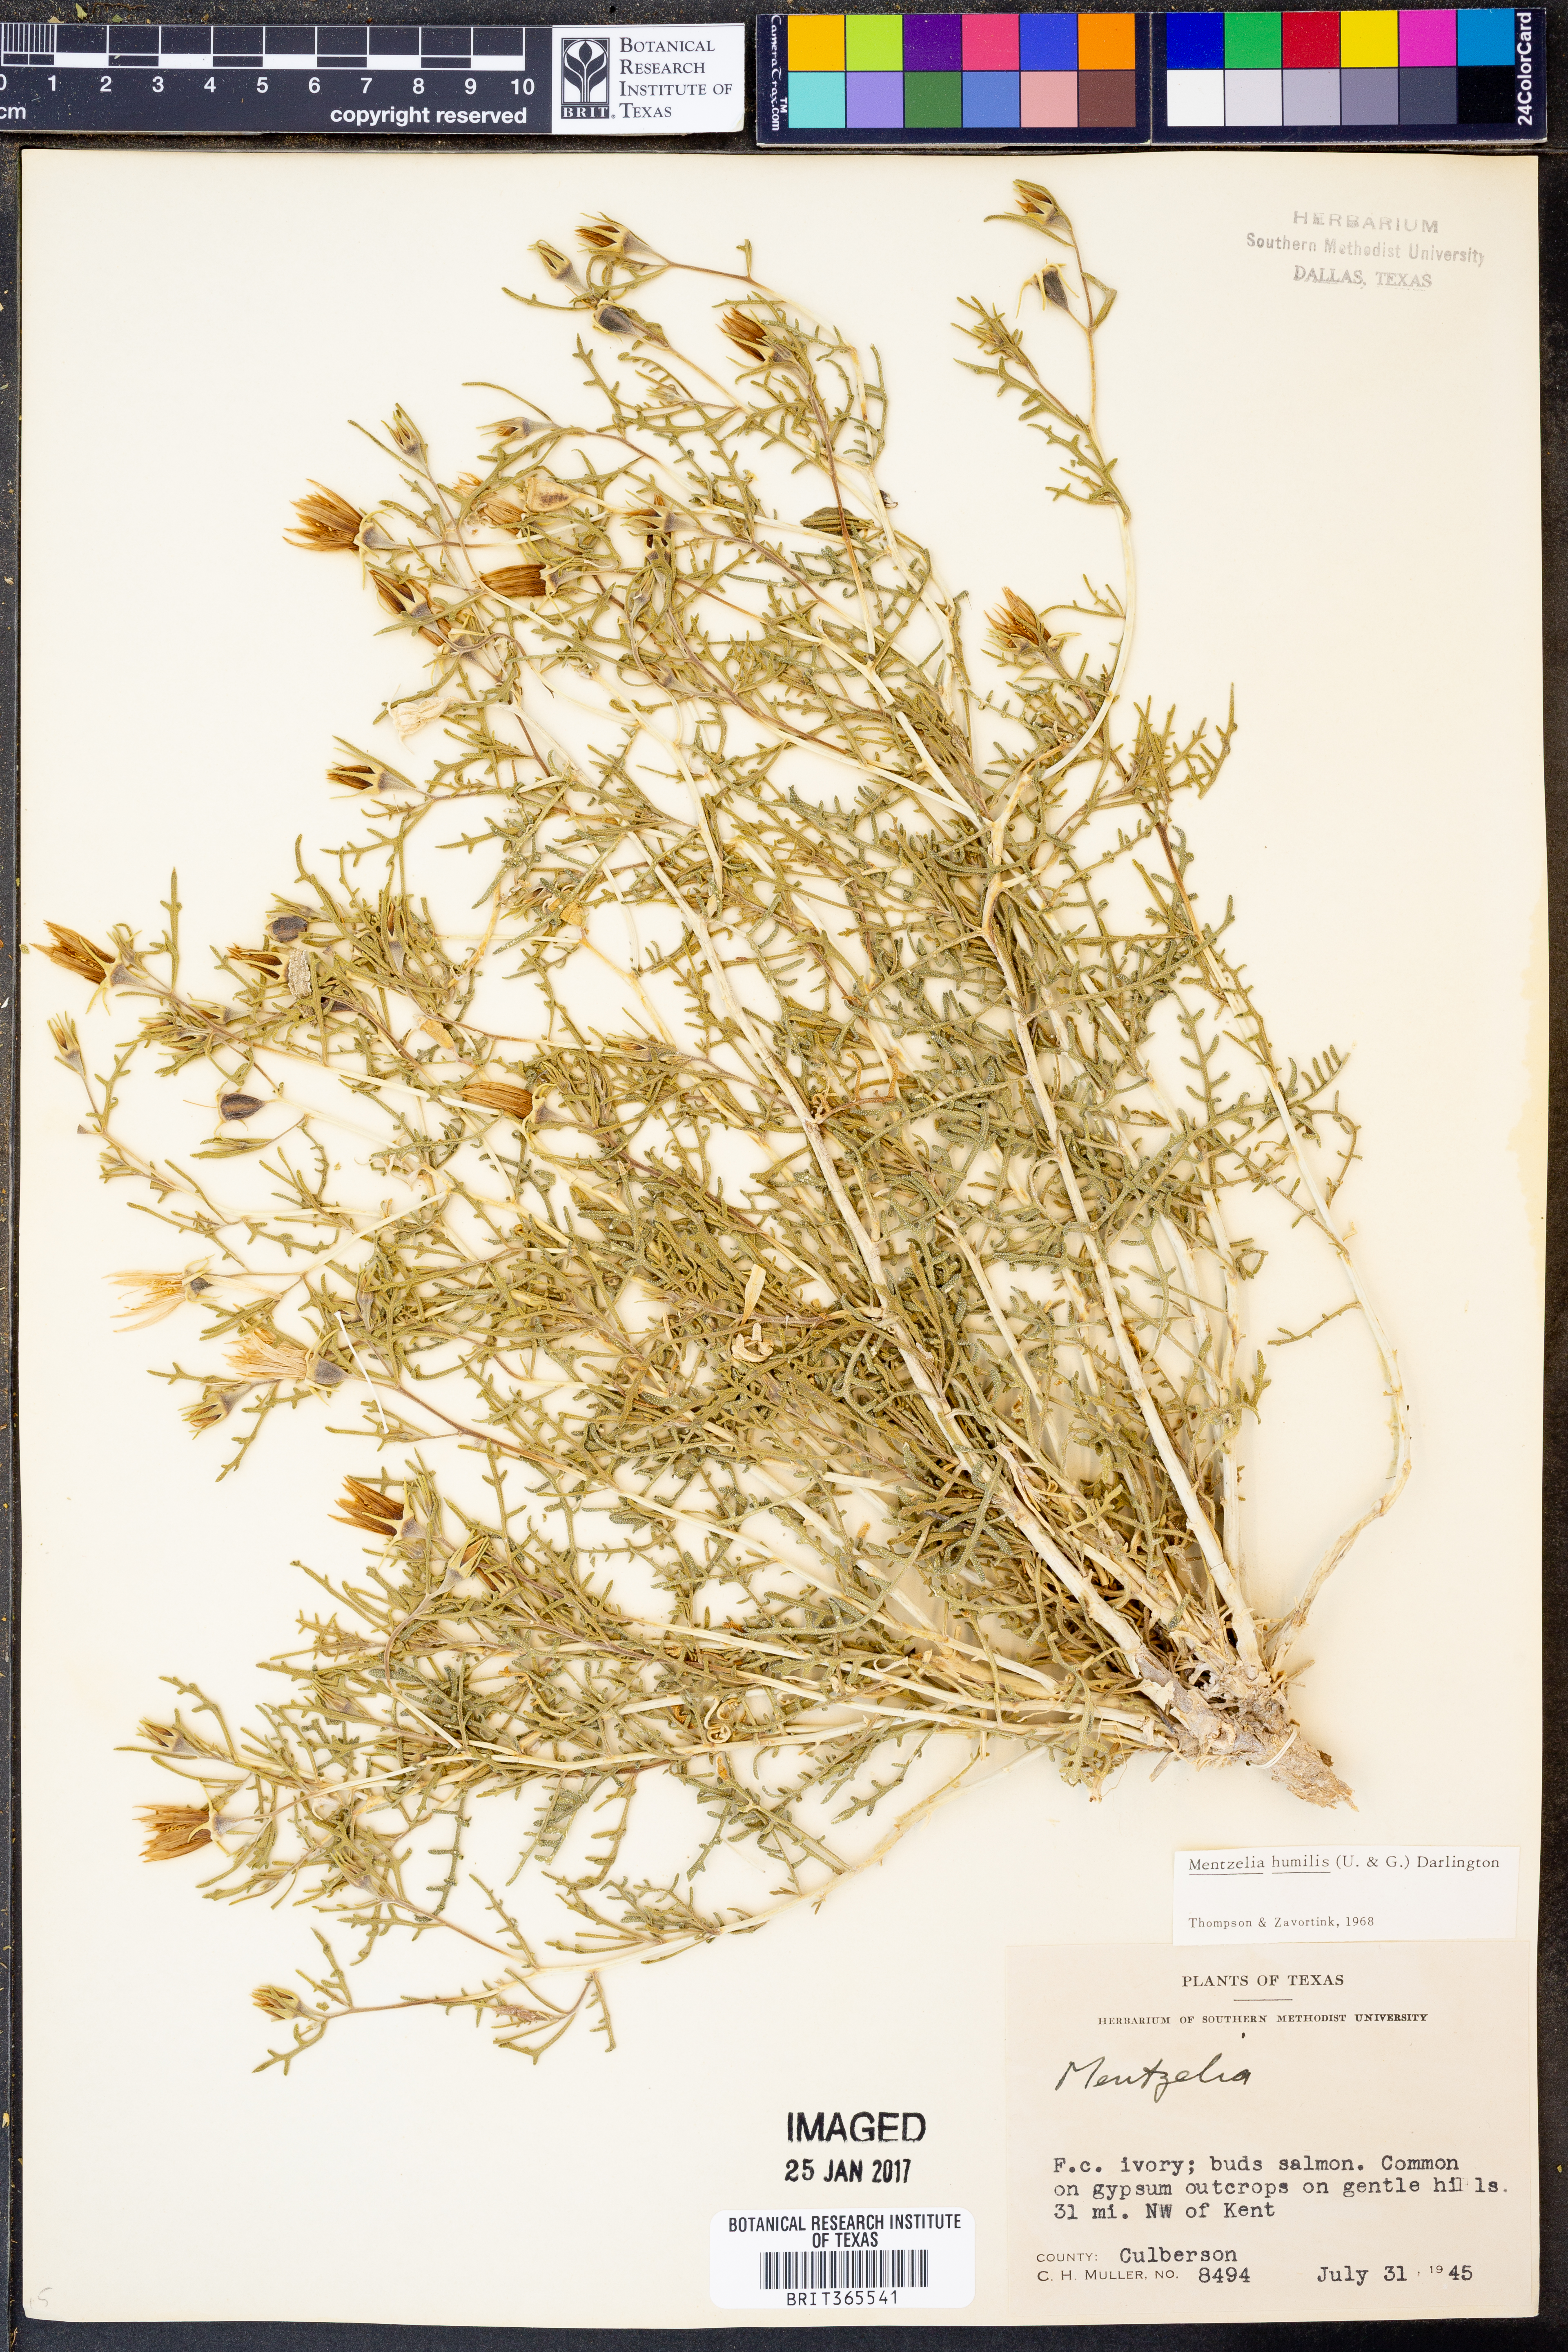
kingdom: Plantae
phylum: Tracheophyta
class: Magnoliopsida
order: Cornales
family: Loasaceae
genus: Mentzelia
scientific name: Mentzelia humilis
